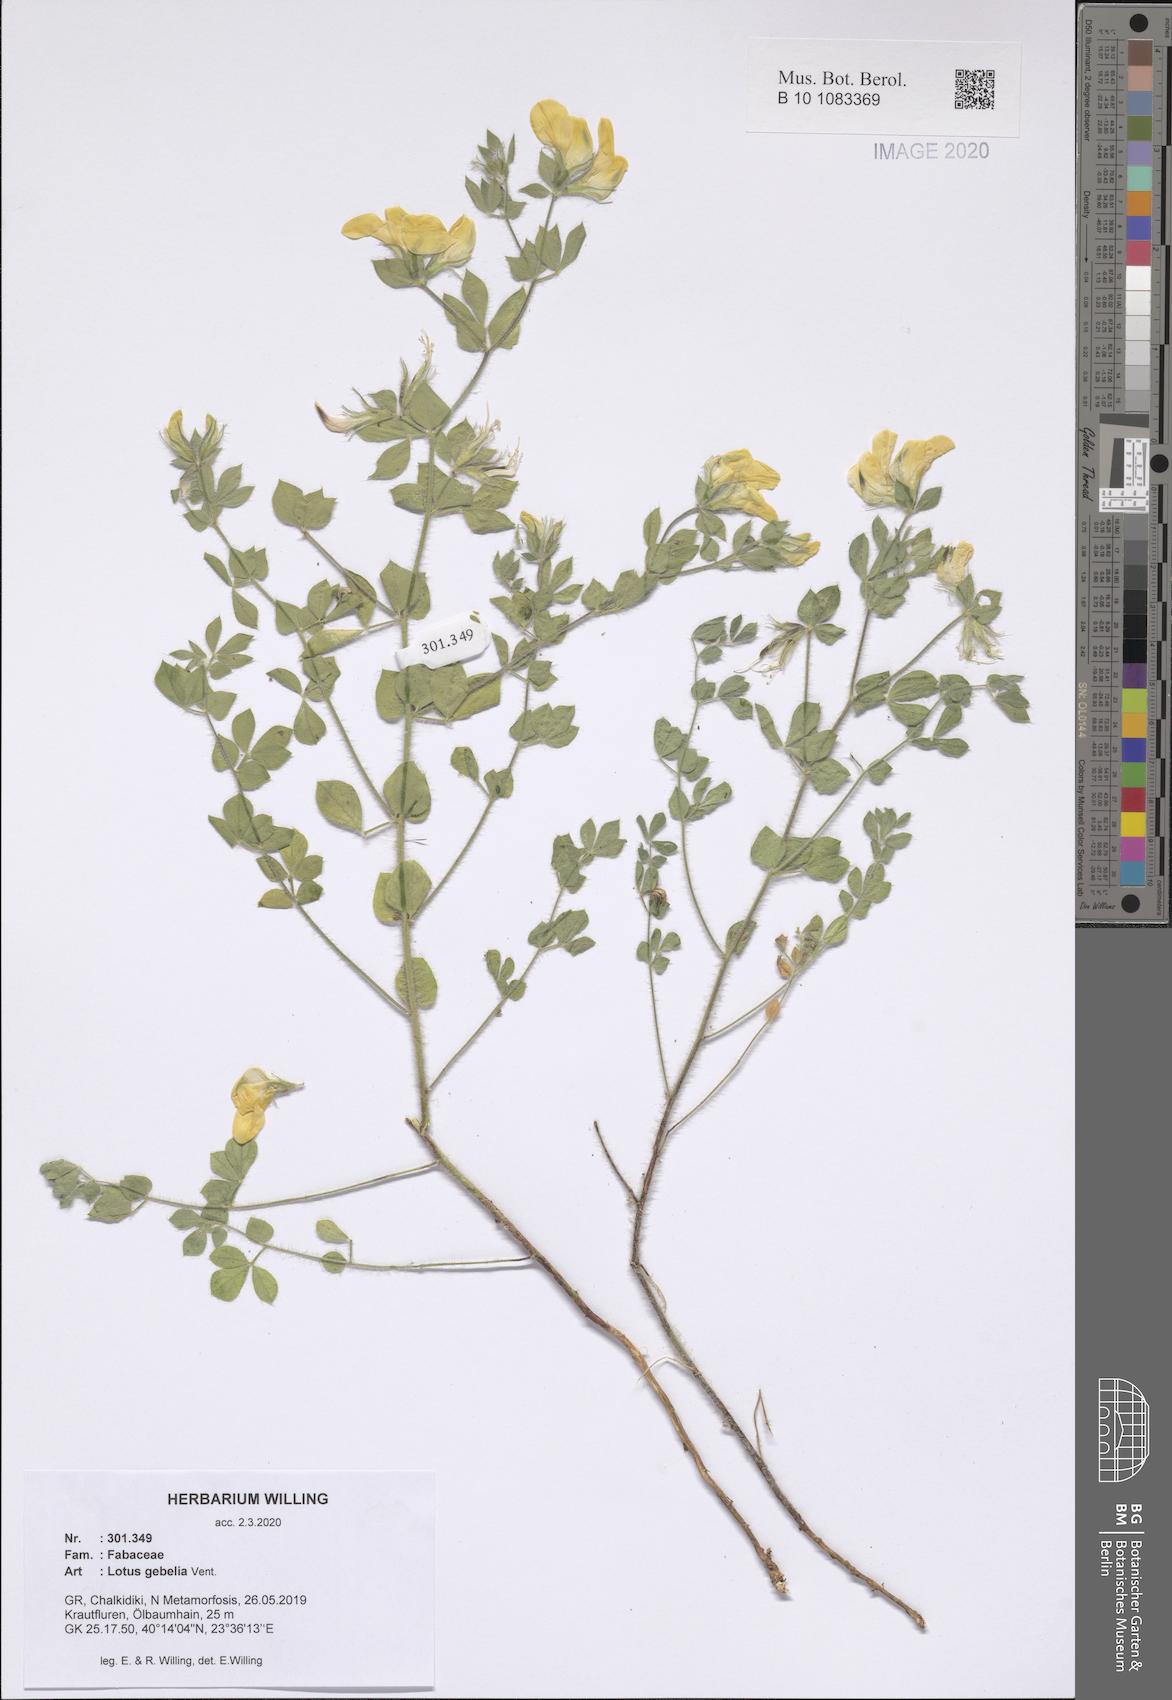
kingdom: Plantae
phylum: Tracheophyta
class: Magnoliopsida
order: Fabales
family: Fabaceae
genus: Lotus
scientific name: Lotus gebelia
